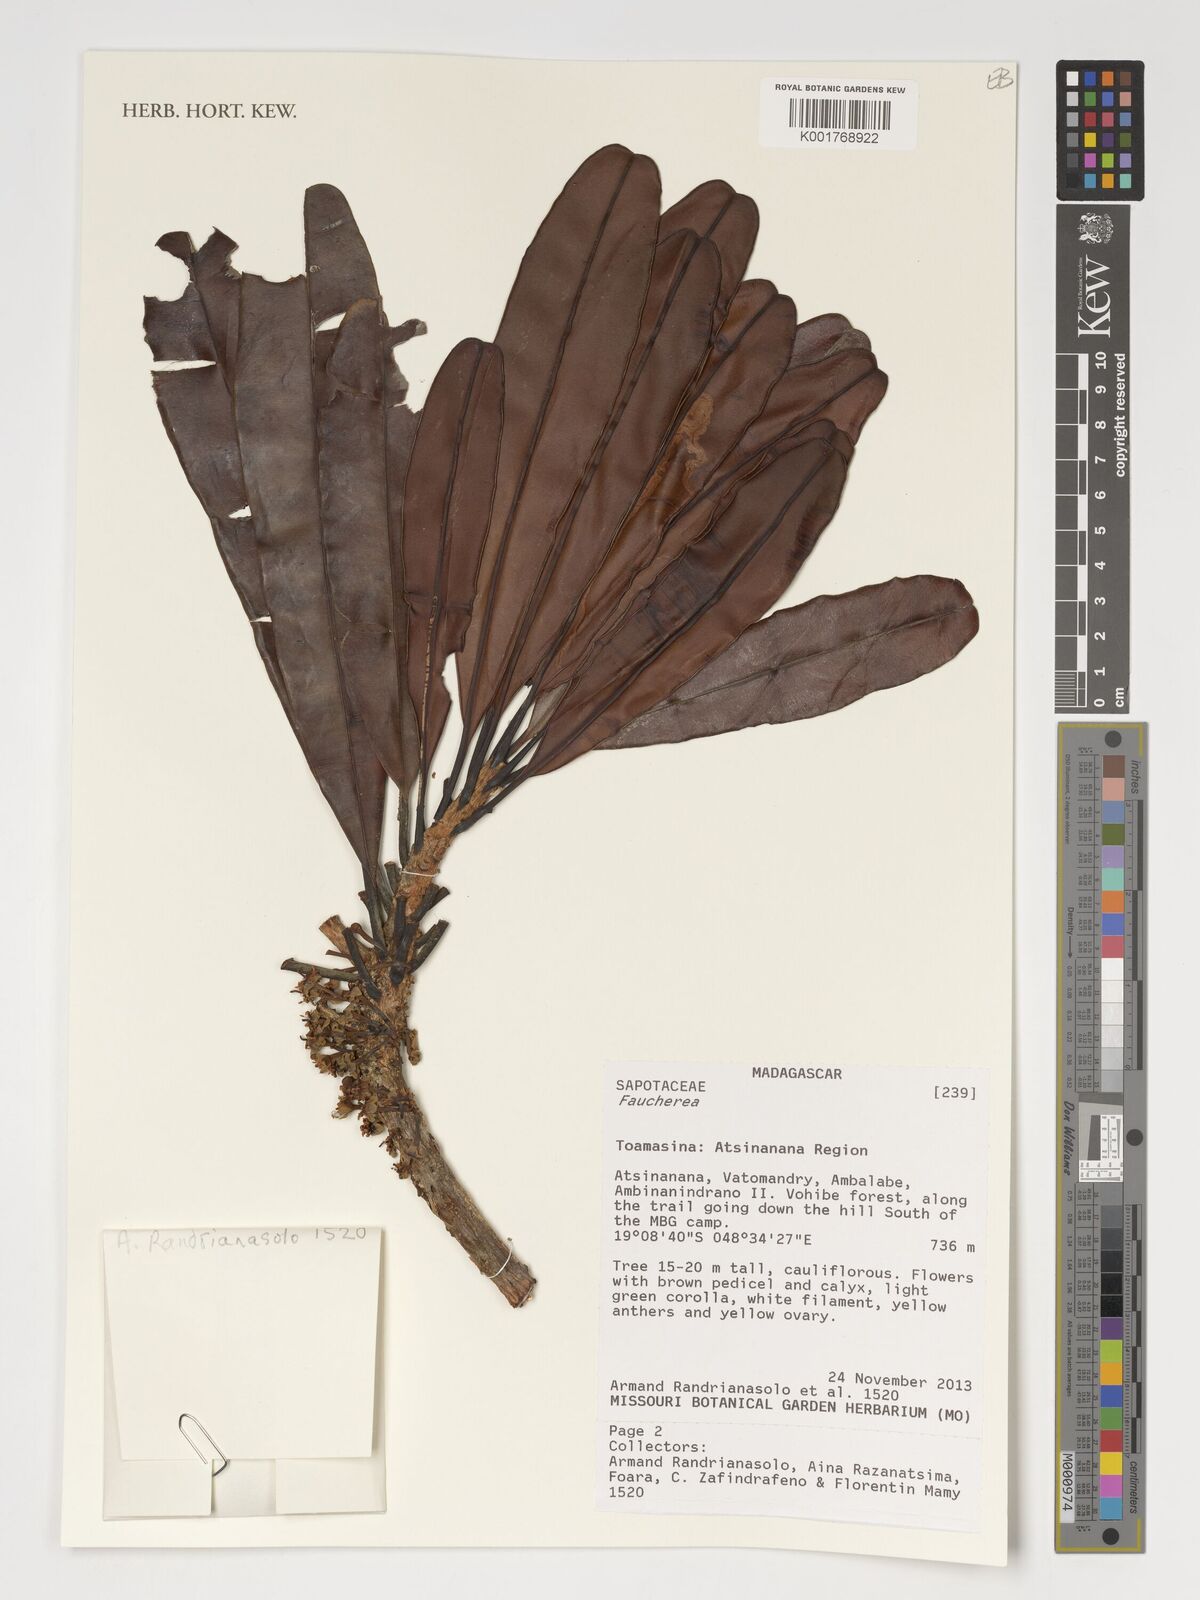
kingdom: Plantae
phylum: Tracheophyta
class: Magnoliopsida
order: Ericales
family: Sapotaceae
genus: Faucherea
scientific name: Faucherea
